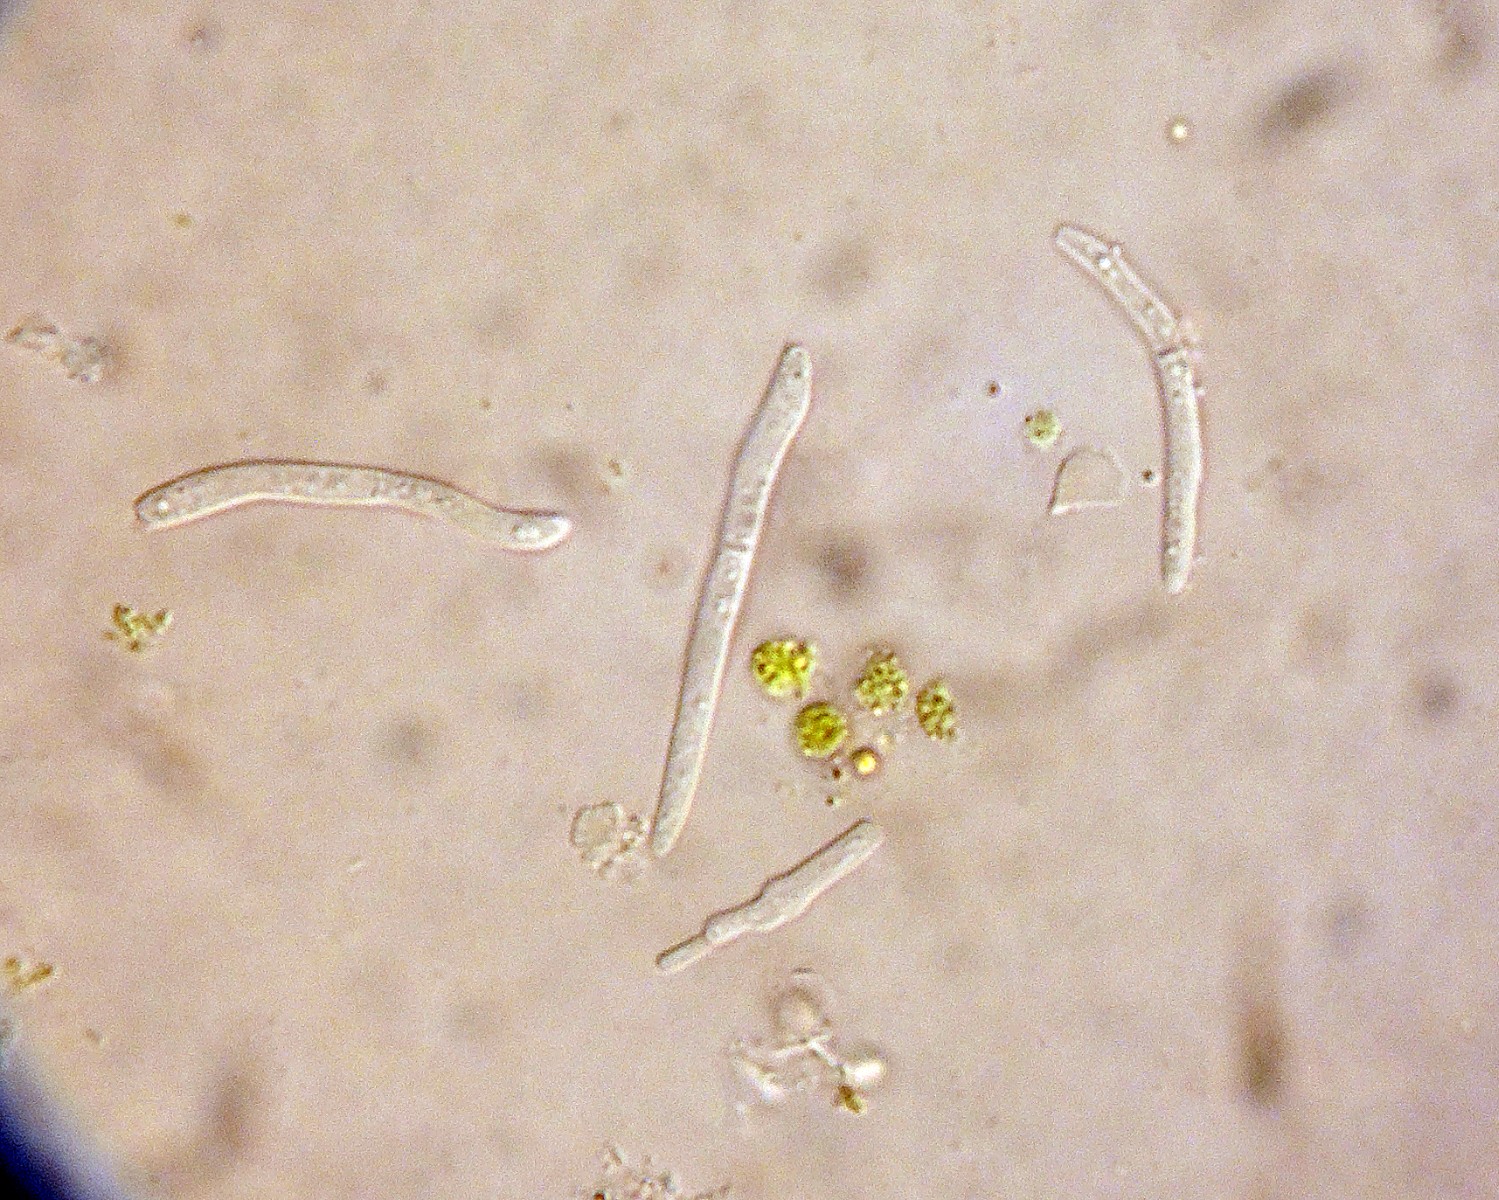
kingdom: Fungi
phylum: Ascomycota
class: Dothideomycetes
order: Mycosphaerellales
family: Mycosphaerellaceae
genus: Septoria
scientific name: Septoria phlogis
